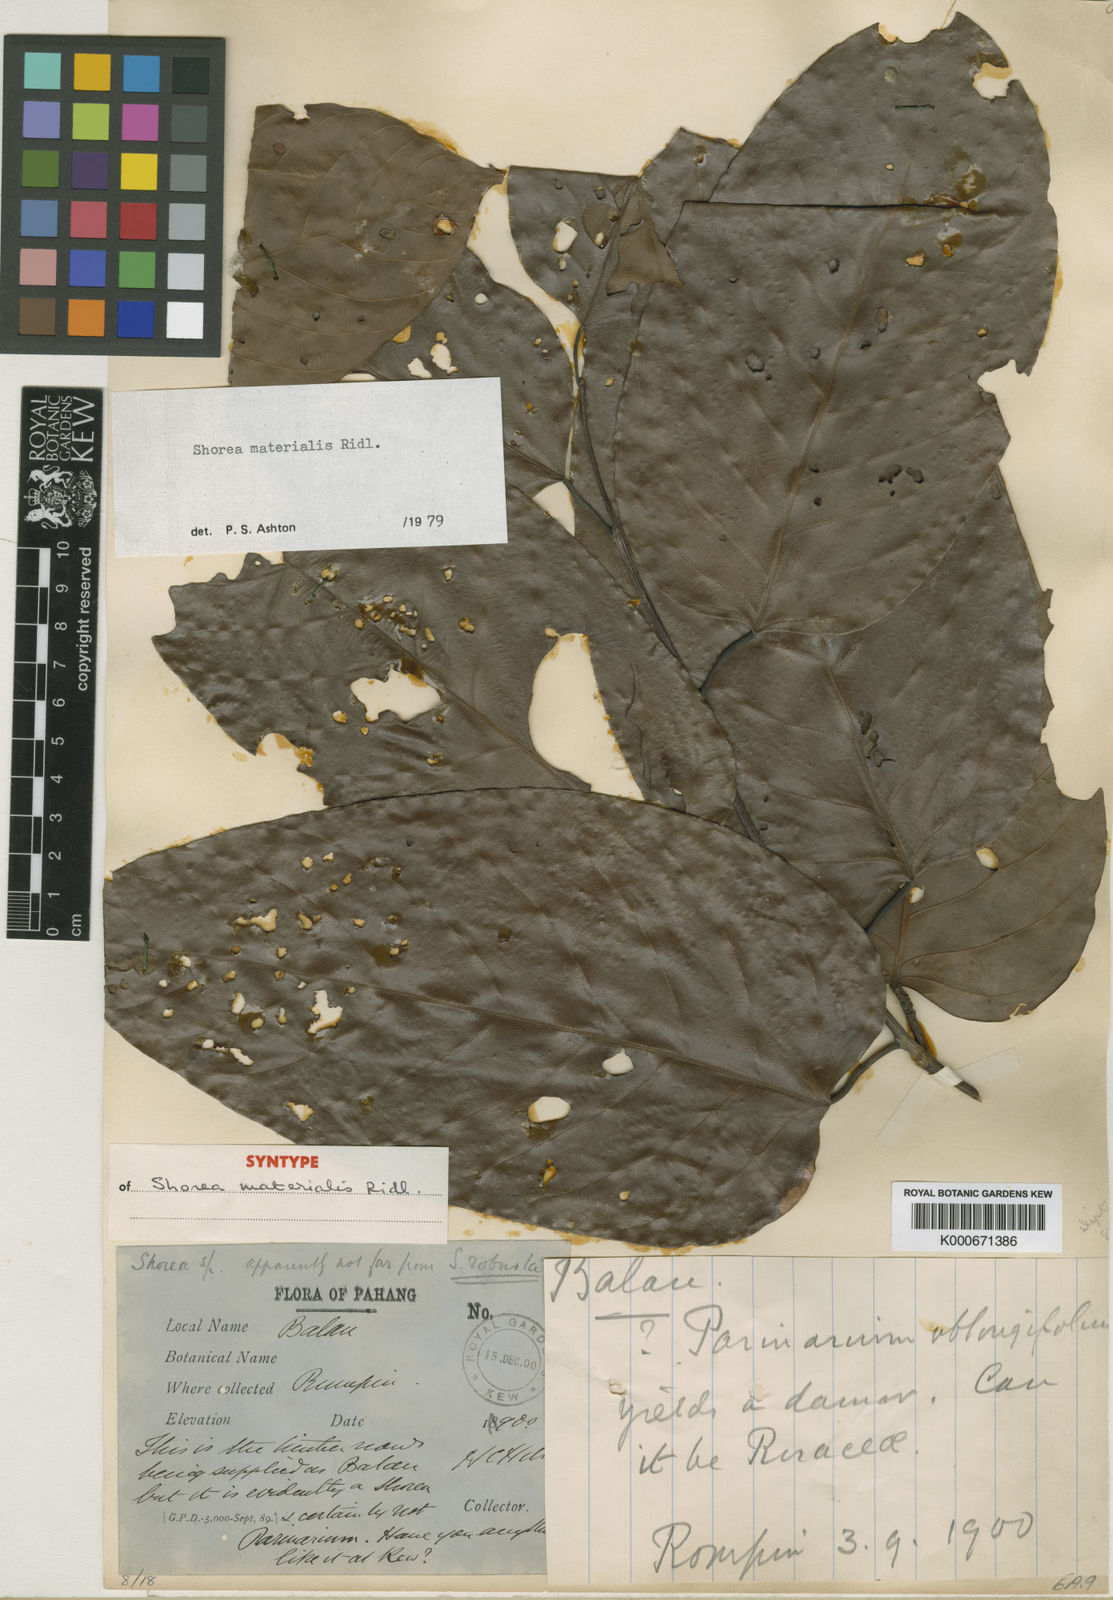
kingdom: Plantae
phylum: Tracheophyta
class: Magnoliopsida
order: Malvales
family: Dipterocarpaceae
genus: Shorea
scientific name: Shorea materialis
